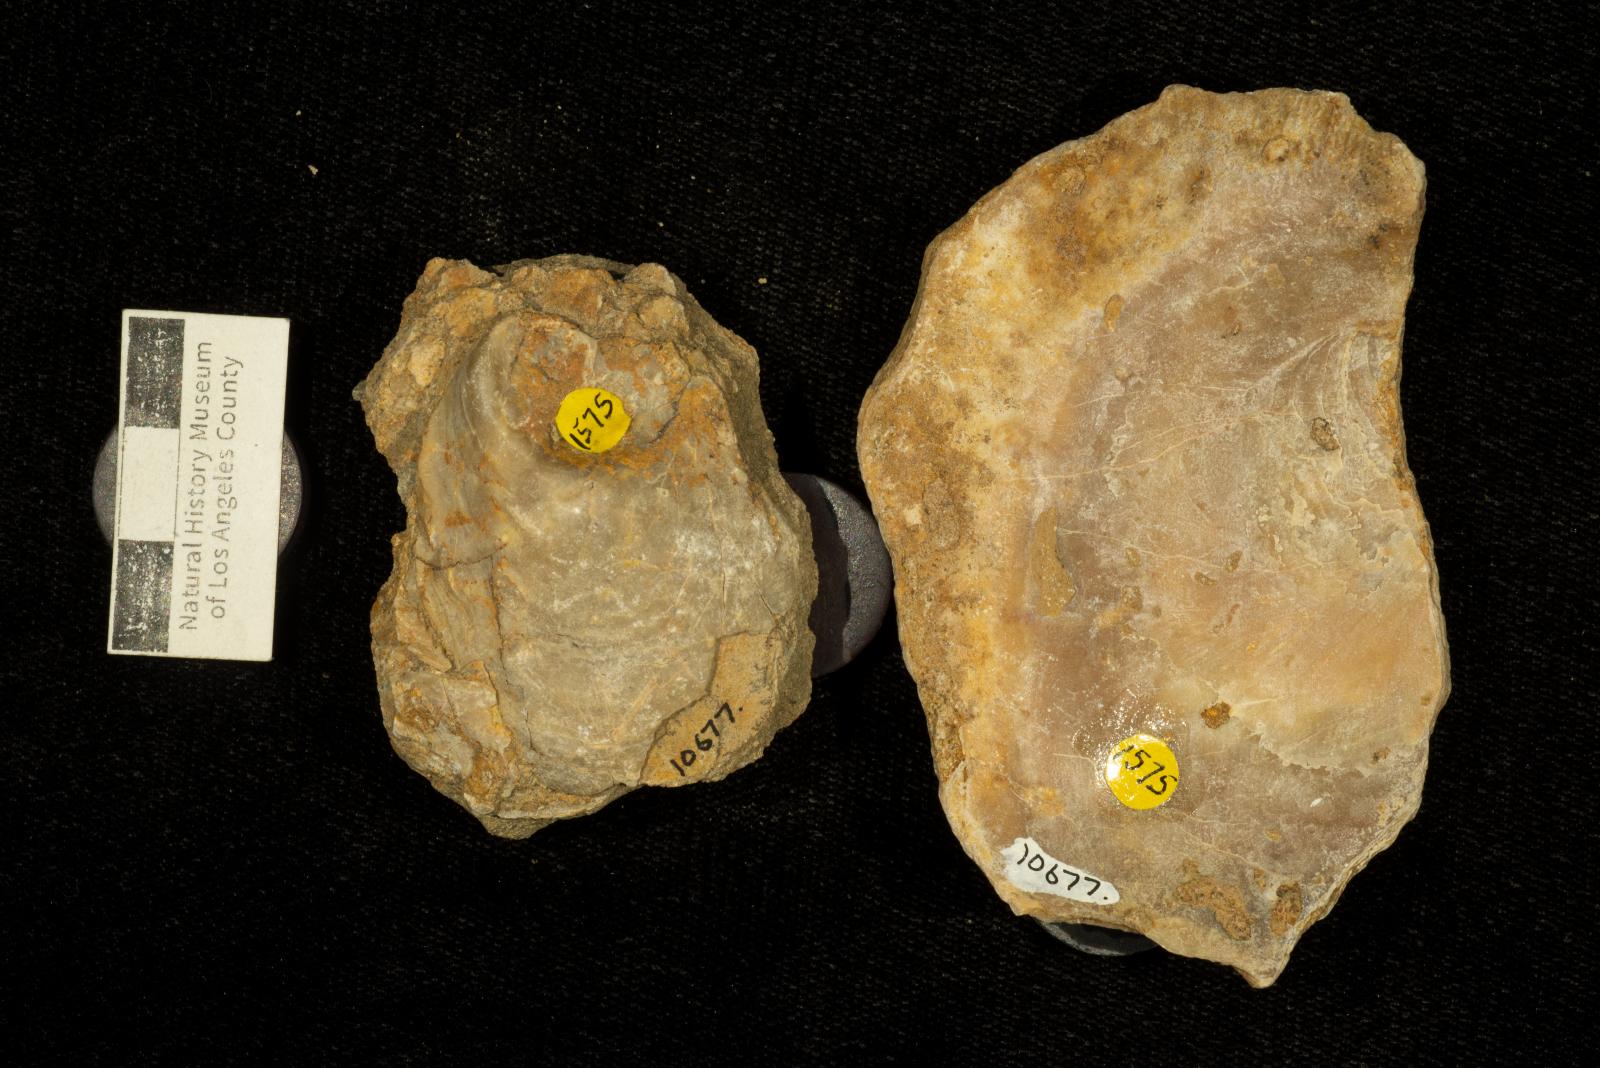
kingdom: Animalia
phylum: Mollusca
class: Bivalvia
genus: Phygraea
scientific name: Phygraea
